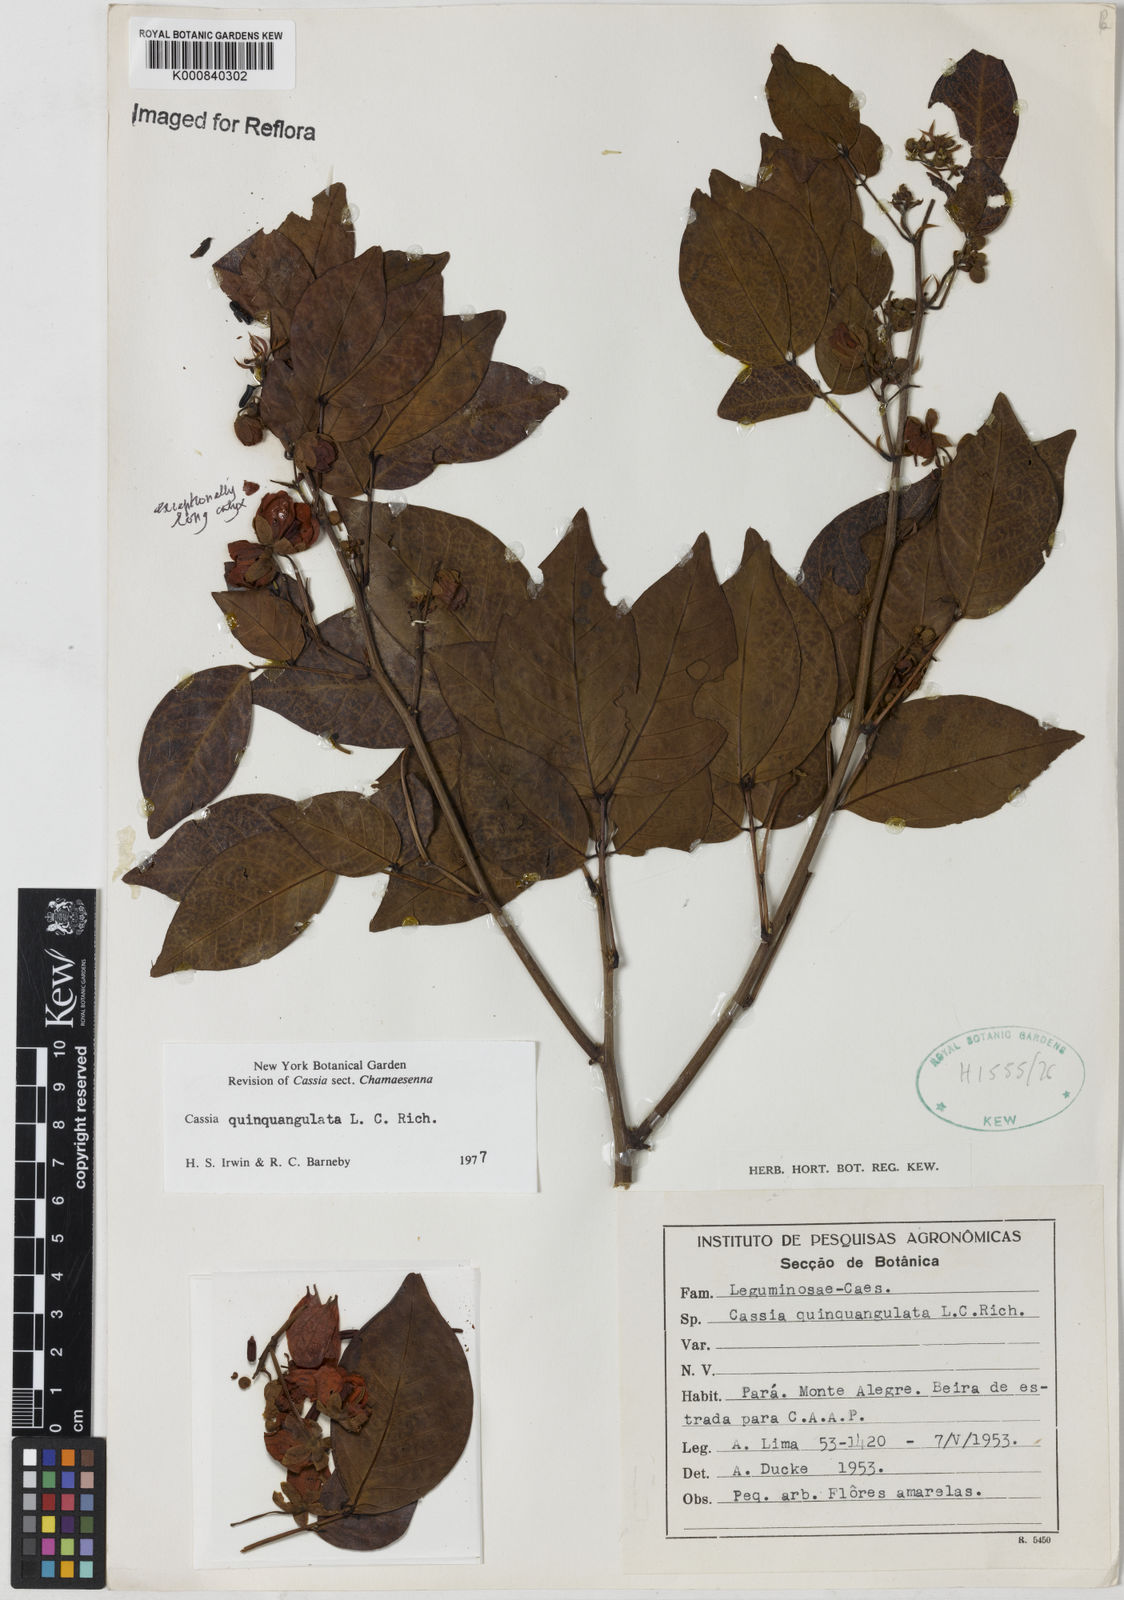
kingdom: Plantae
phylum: Tracheophyta
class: Magnoliopsida
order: Fabales
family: Fabaceae
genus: Senna
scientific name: Senna
